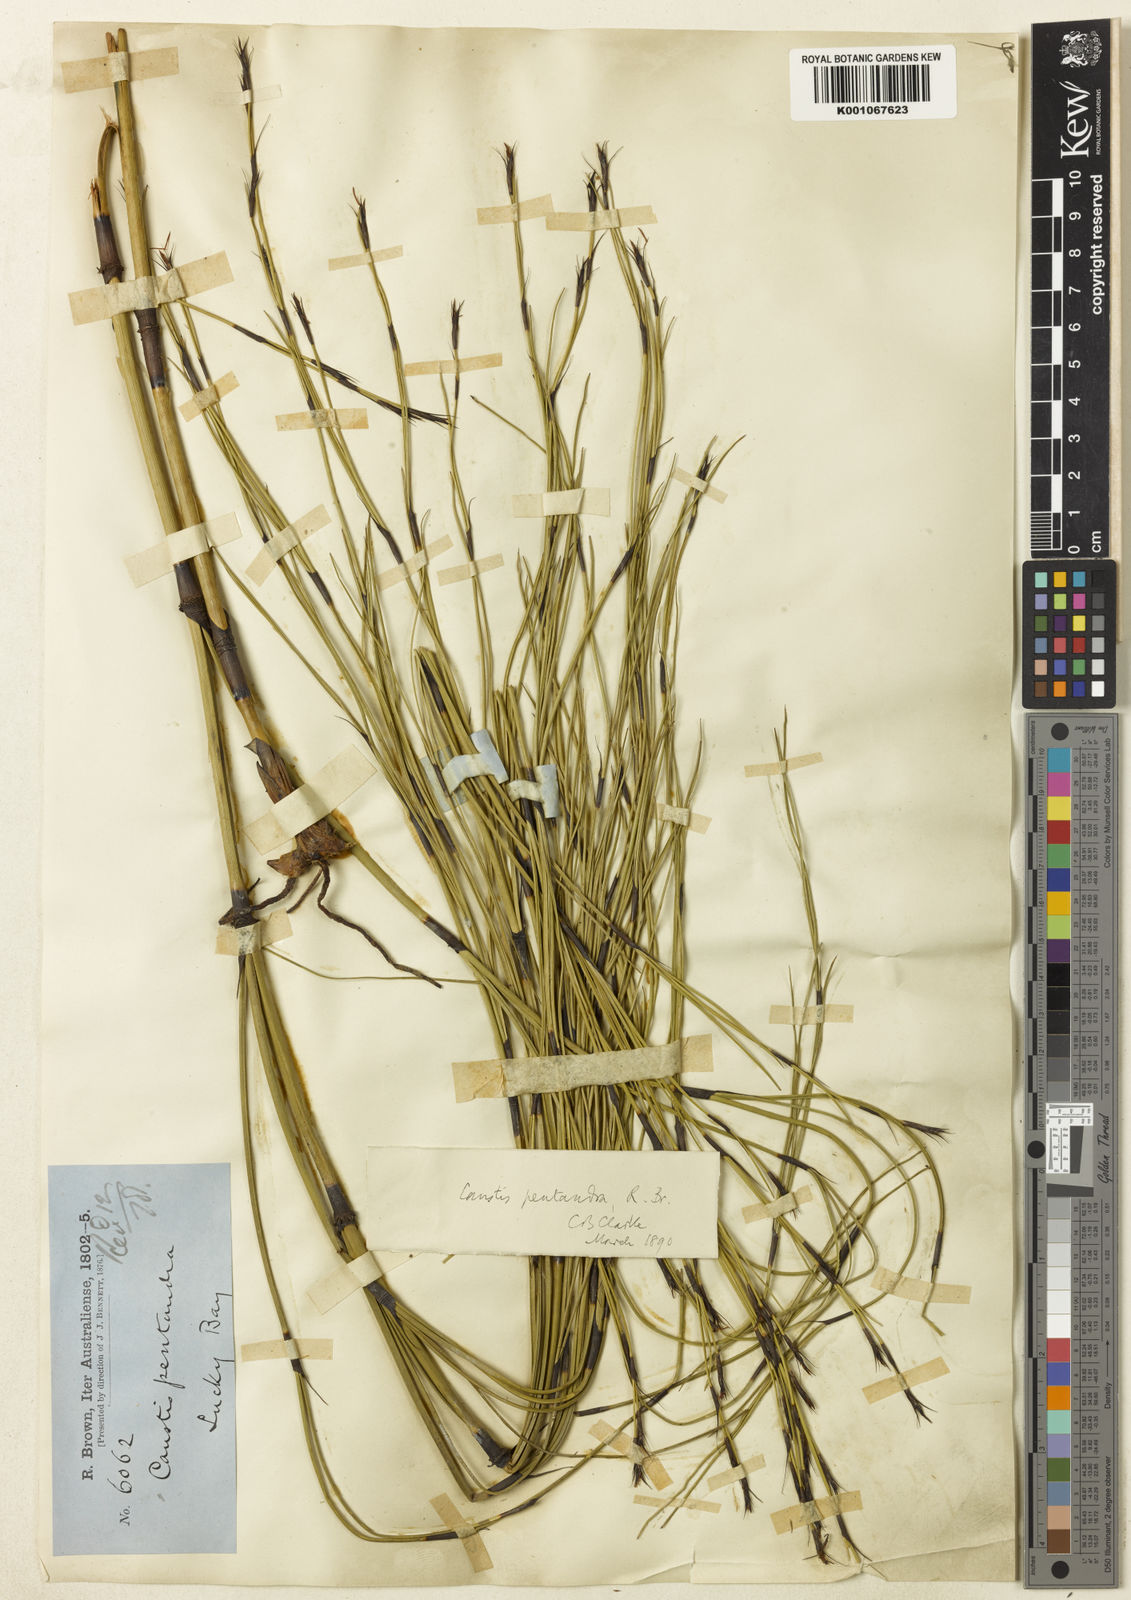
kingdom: Plantae
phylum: Tracheophyta
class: Liliopsida
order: Poales
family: Cyperaceae
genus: Caustis
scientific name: Caustis pentandra
